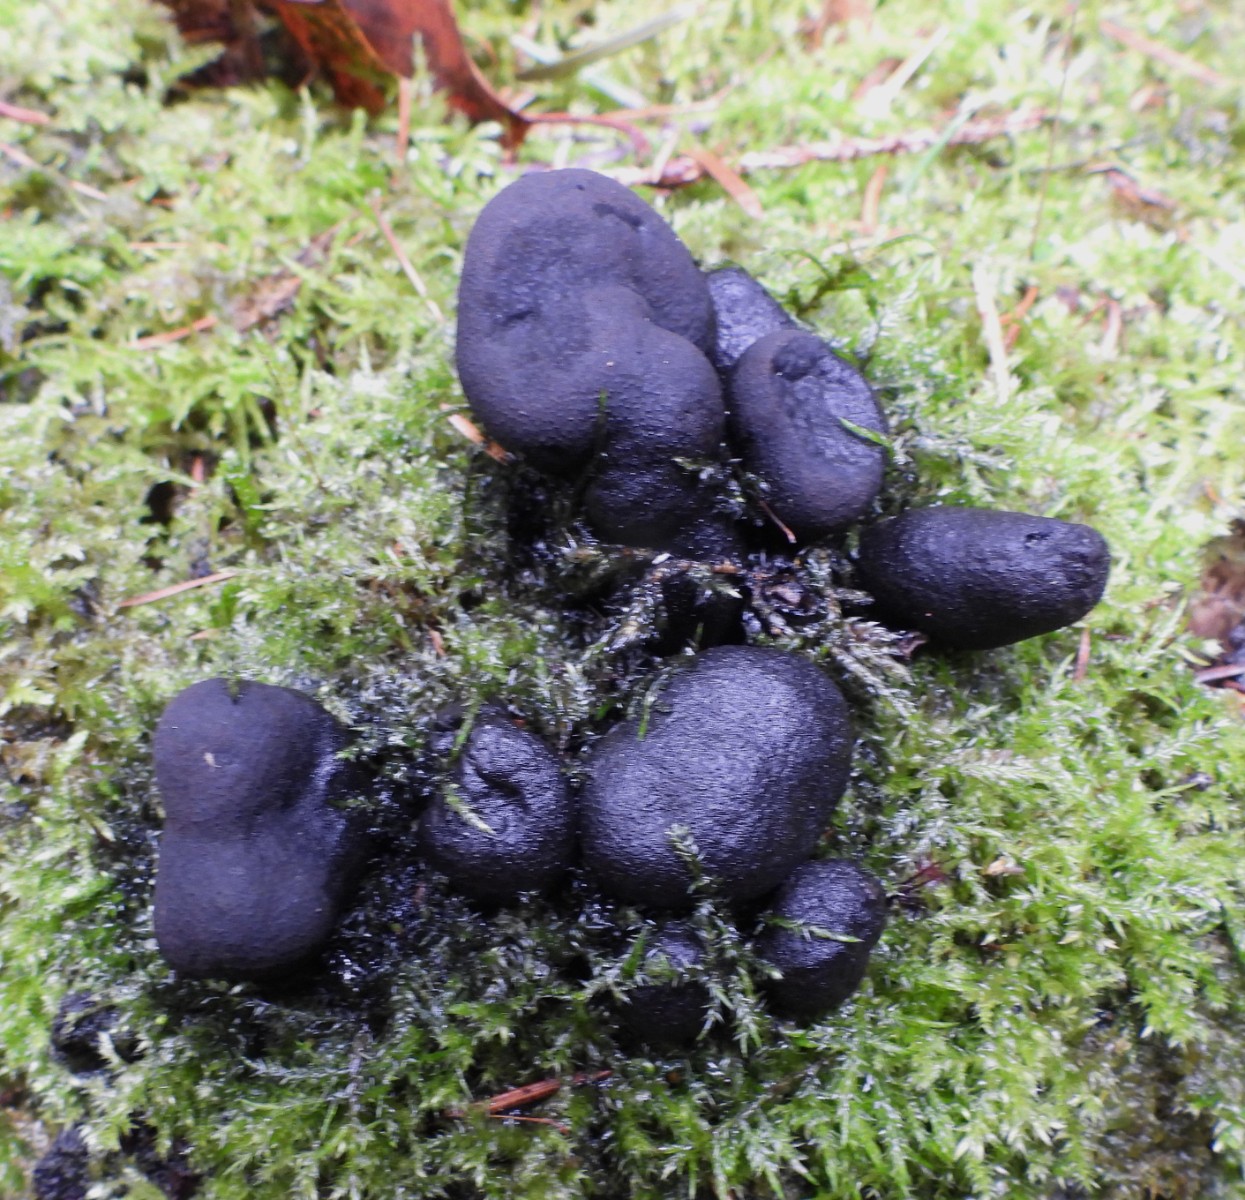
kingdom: Fungi
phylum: Ascomycota
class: Sordariomycetes
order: Xylariales
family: Xylariaceae
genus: Xylaria
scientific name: Xylaria polymorpha
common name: kølle-stødsvamp
